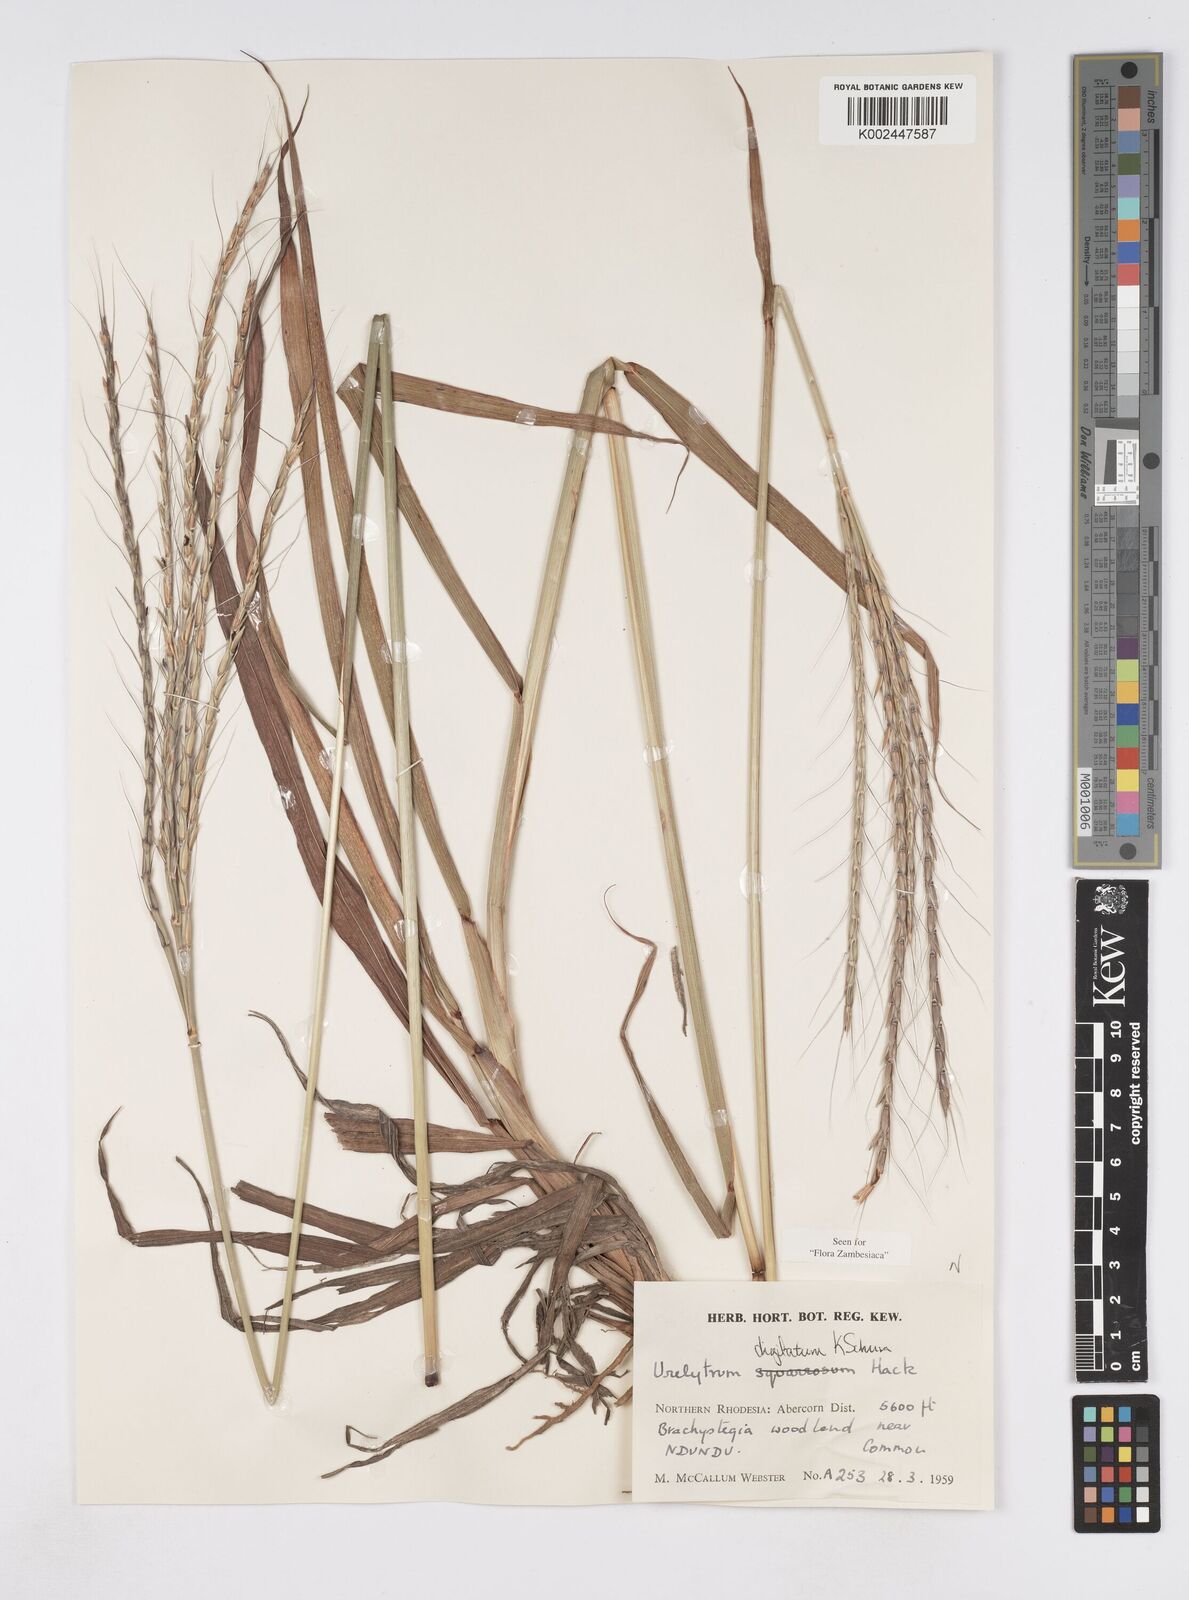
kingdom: Plantae
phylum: Tracheophyta
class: Liliopsida
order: Poales
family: Poaceae
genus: Urelytrum
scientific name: Urelytrum digitatum
